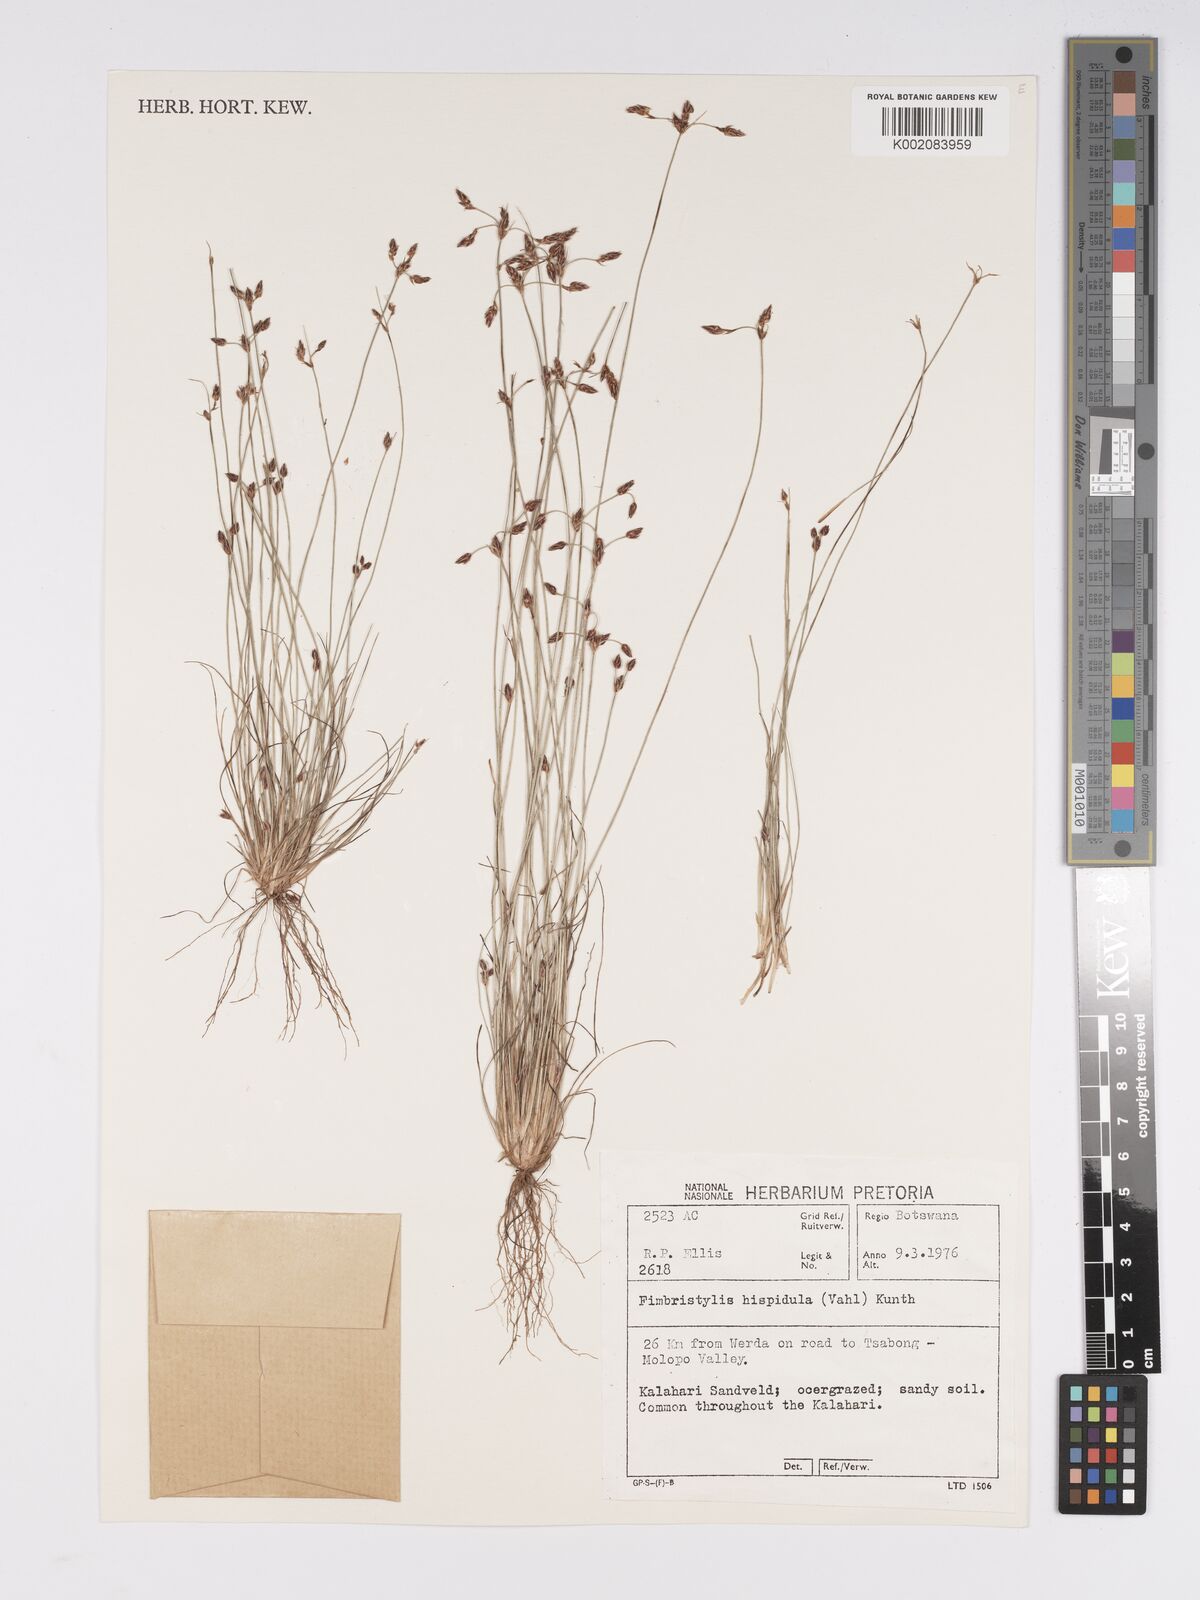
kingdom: Plantae
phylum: Tracheophyta
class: Liliopsida
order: Poales
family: Cyperaceae
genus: Bulbostylis
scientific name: Bulbostylis hispidula
